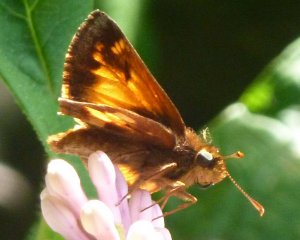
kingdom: Animalia
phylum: Arthropoda
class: Insecta
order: Lepidoptera
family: Hesperiidae
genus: Lon
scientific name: Lon hobomok
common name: Hobomok Skipper
